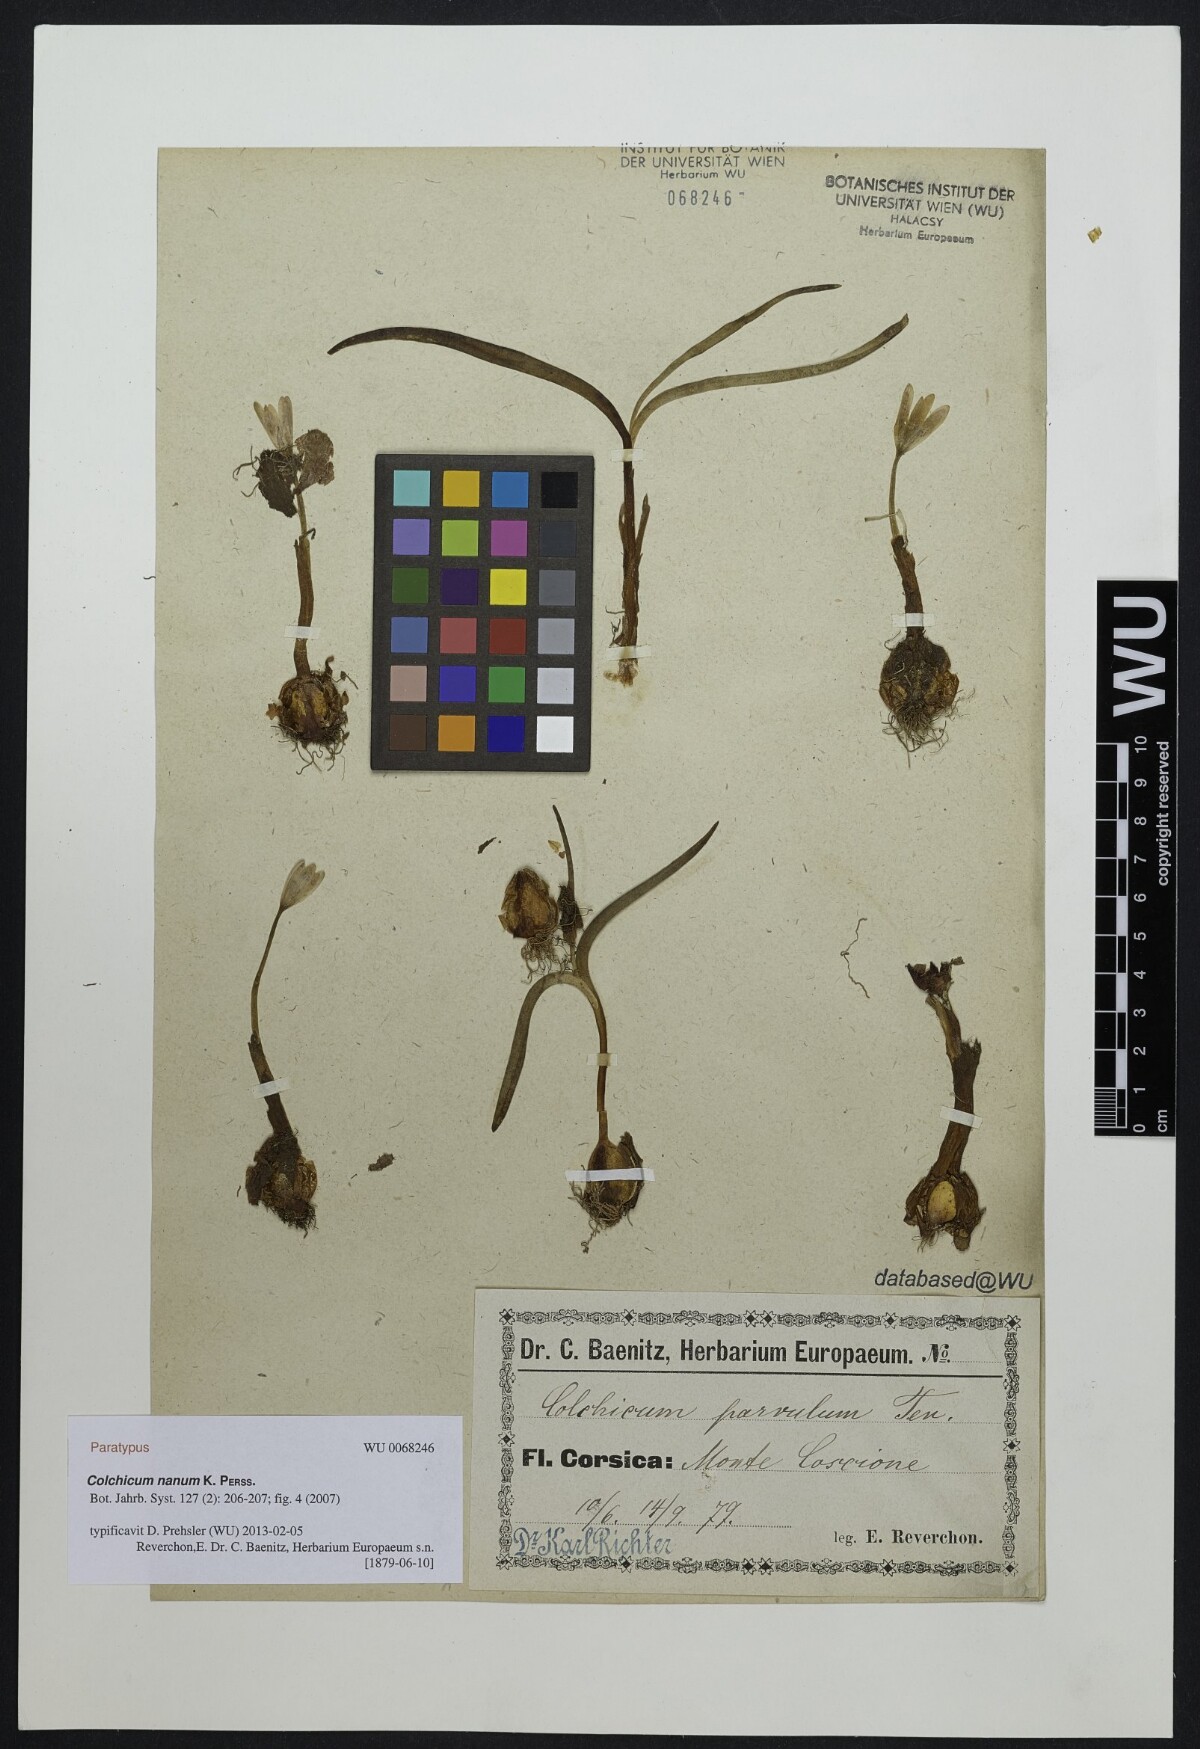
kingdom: Plantae
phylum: Tracheophyta
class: Liliopsida
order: Liliales
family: Colchicaceae
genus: Colchicum
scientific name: Colchicum nanum
